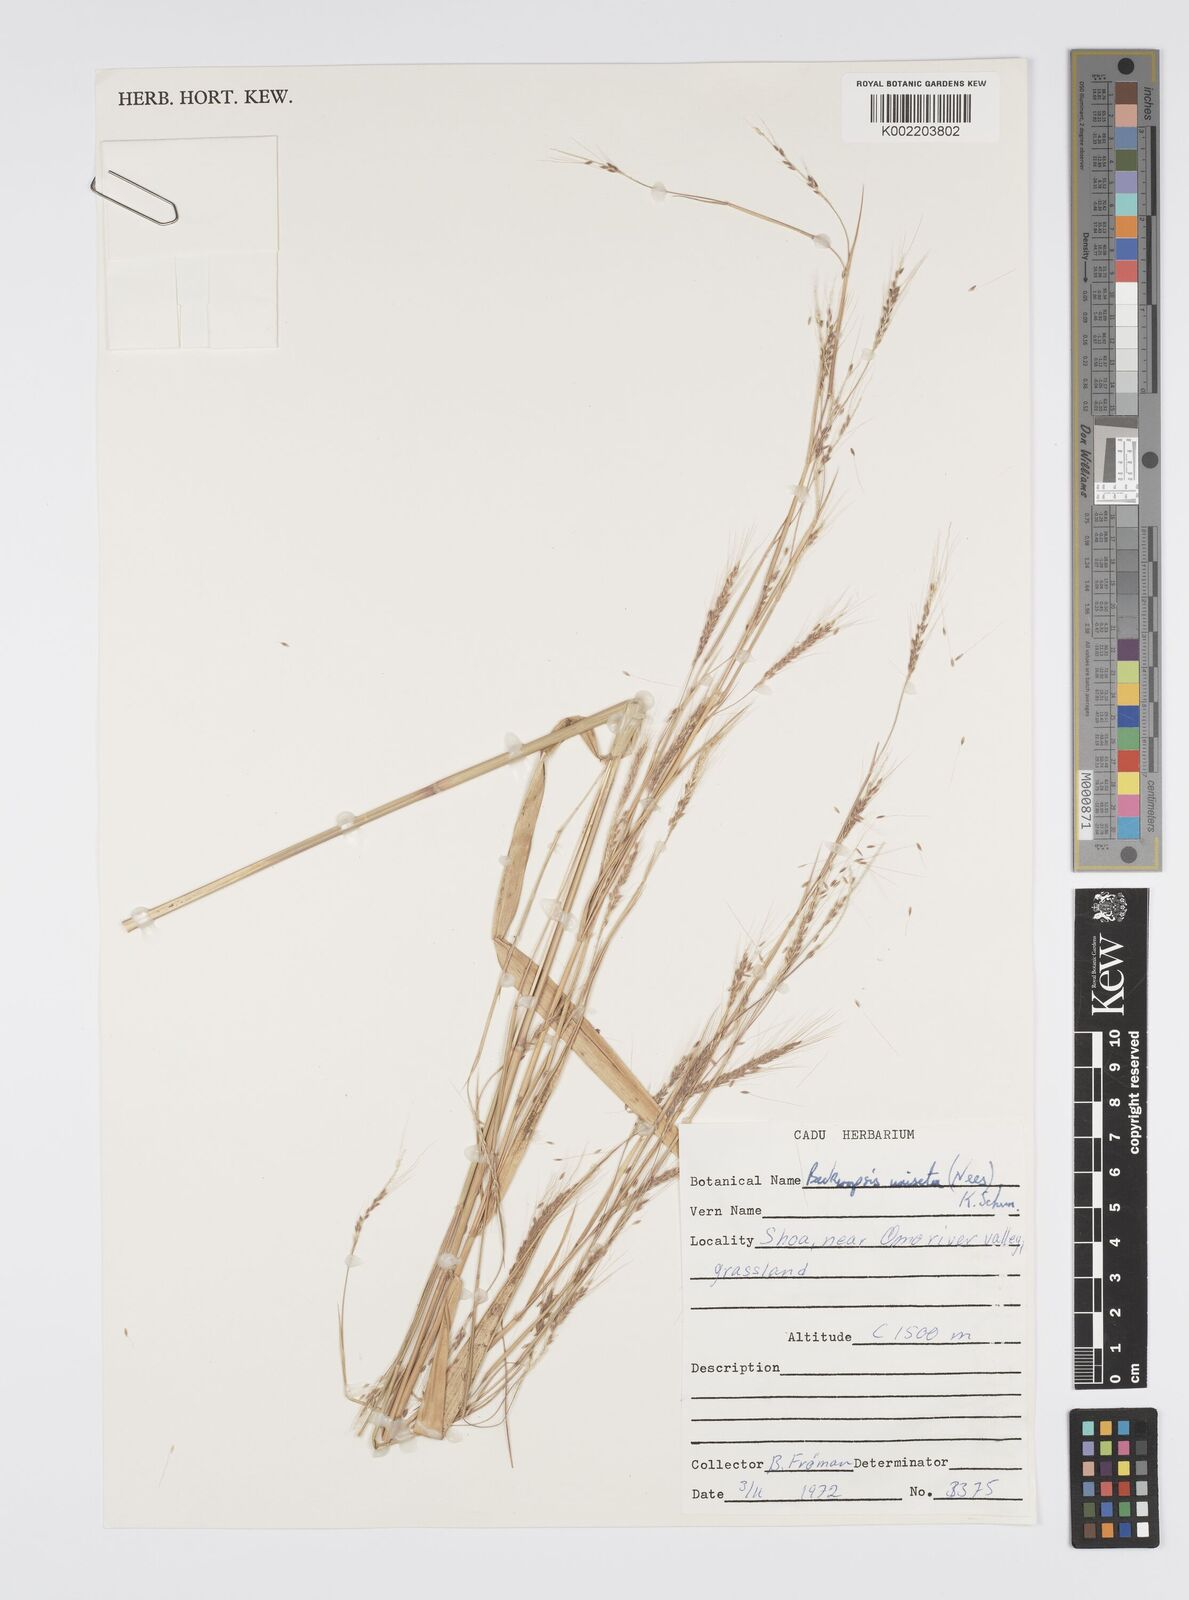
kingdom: Plantae
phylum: Tracheophyta
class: Liliopsida
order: Poales
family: Poaceae
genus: Cenchrus
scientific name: Cenchrus unisetus
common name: Natal grass
